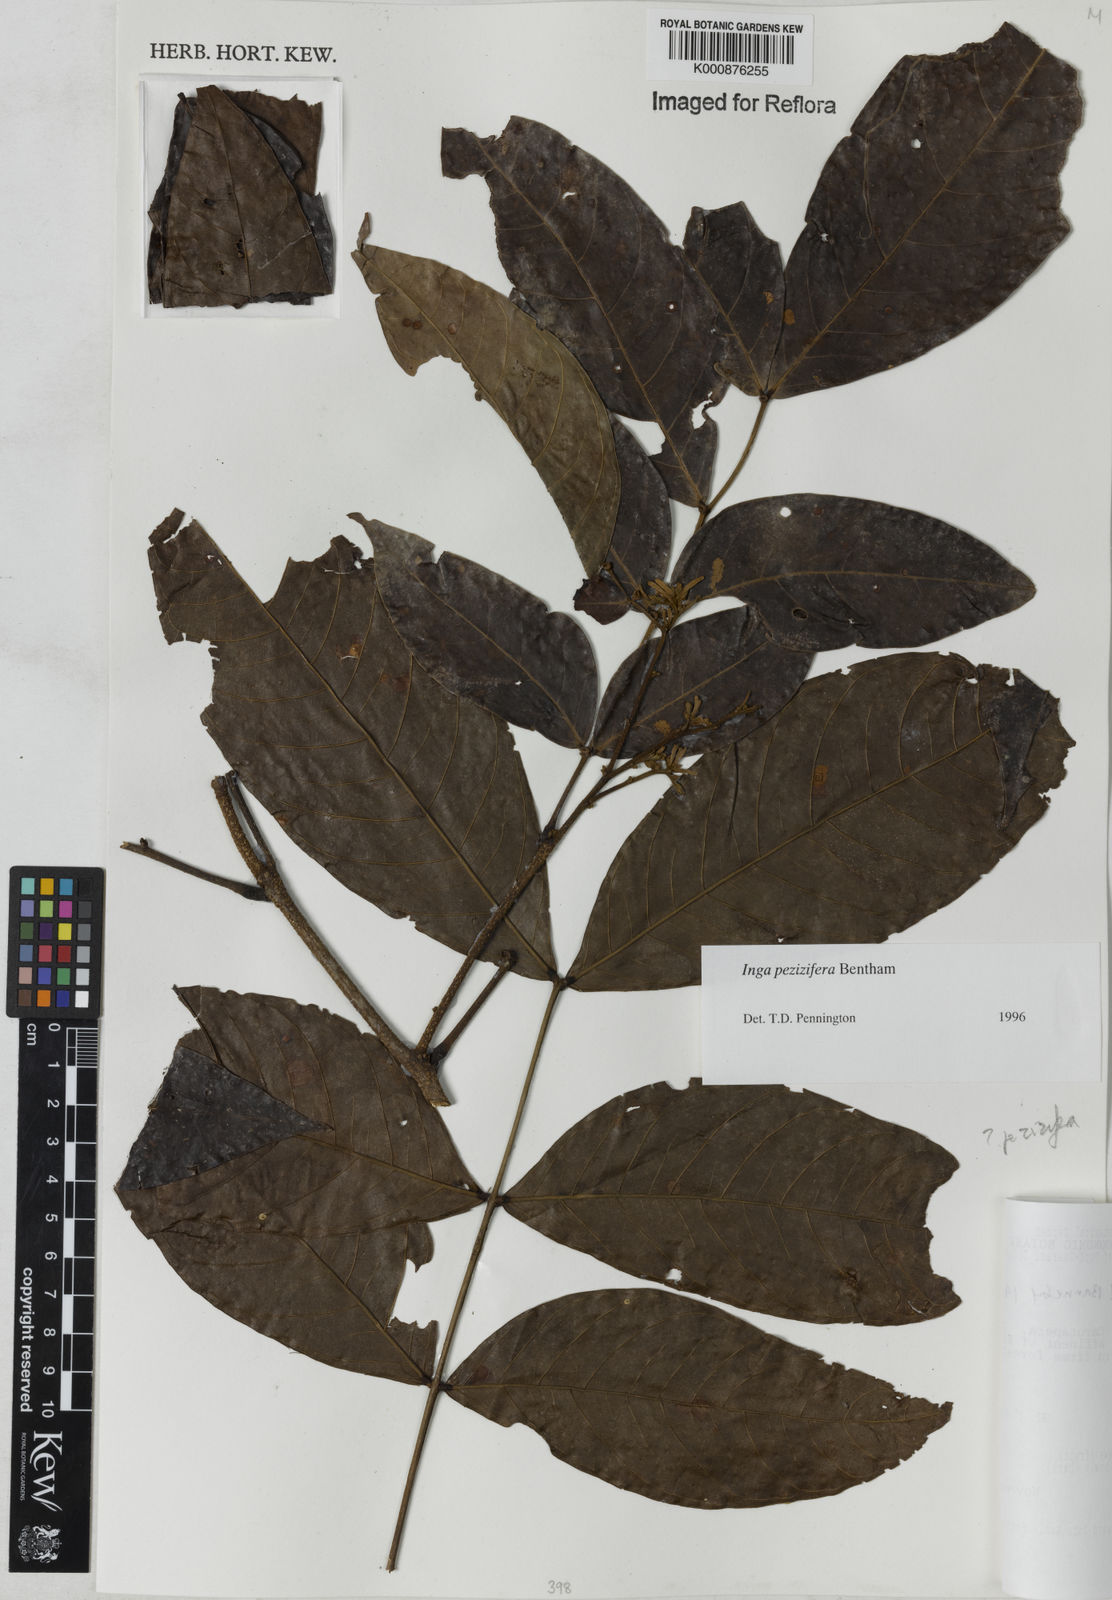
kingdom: Plantae
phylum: Tracheophyta
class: Magnoliopsida
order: Fabales
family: Fabaceae
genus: Inga
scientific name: Inga pezizifera
